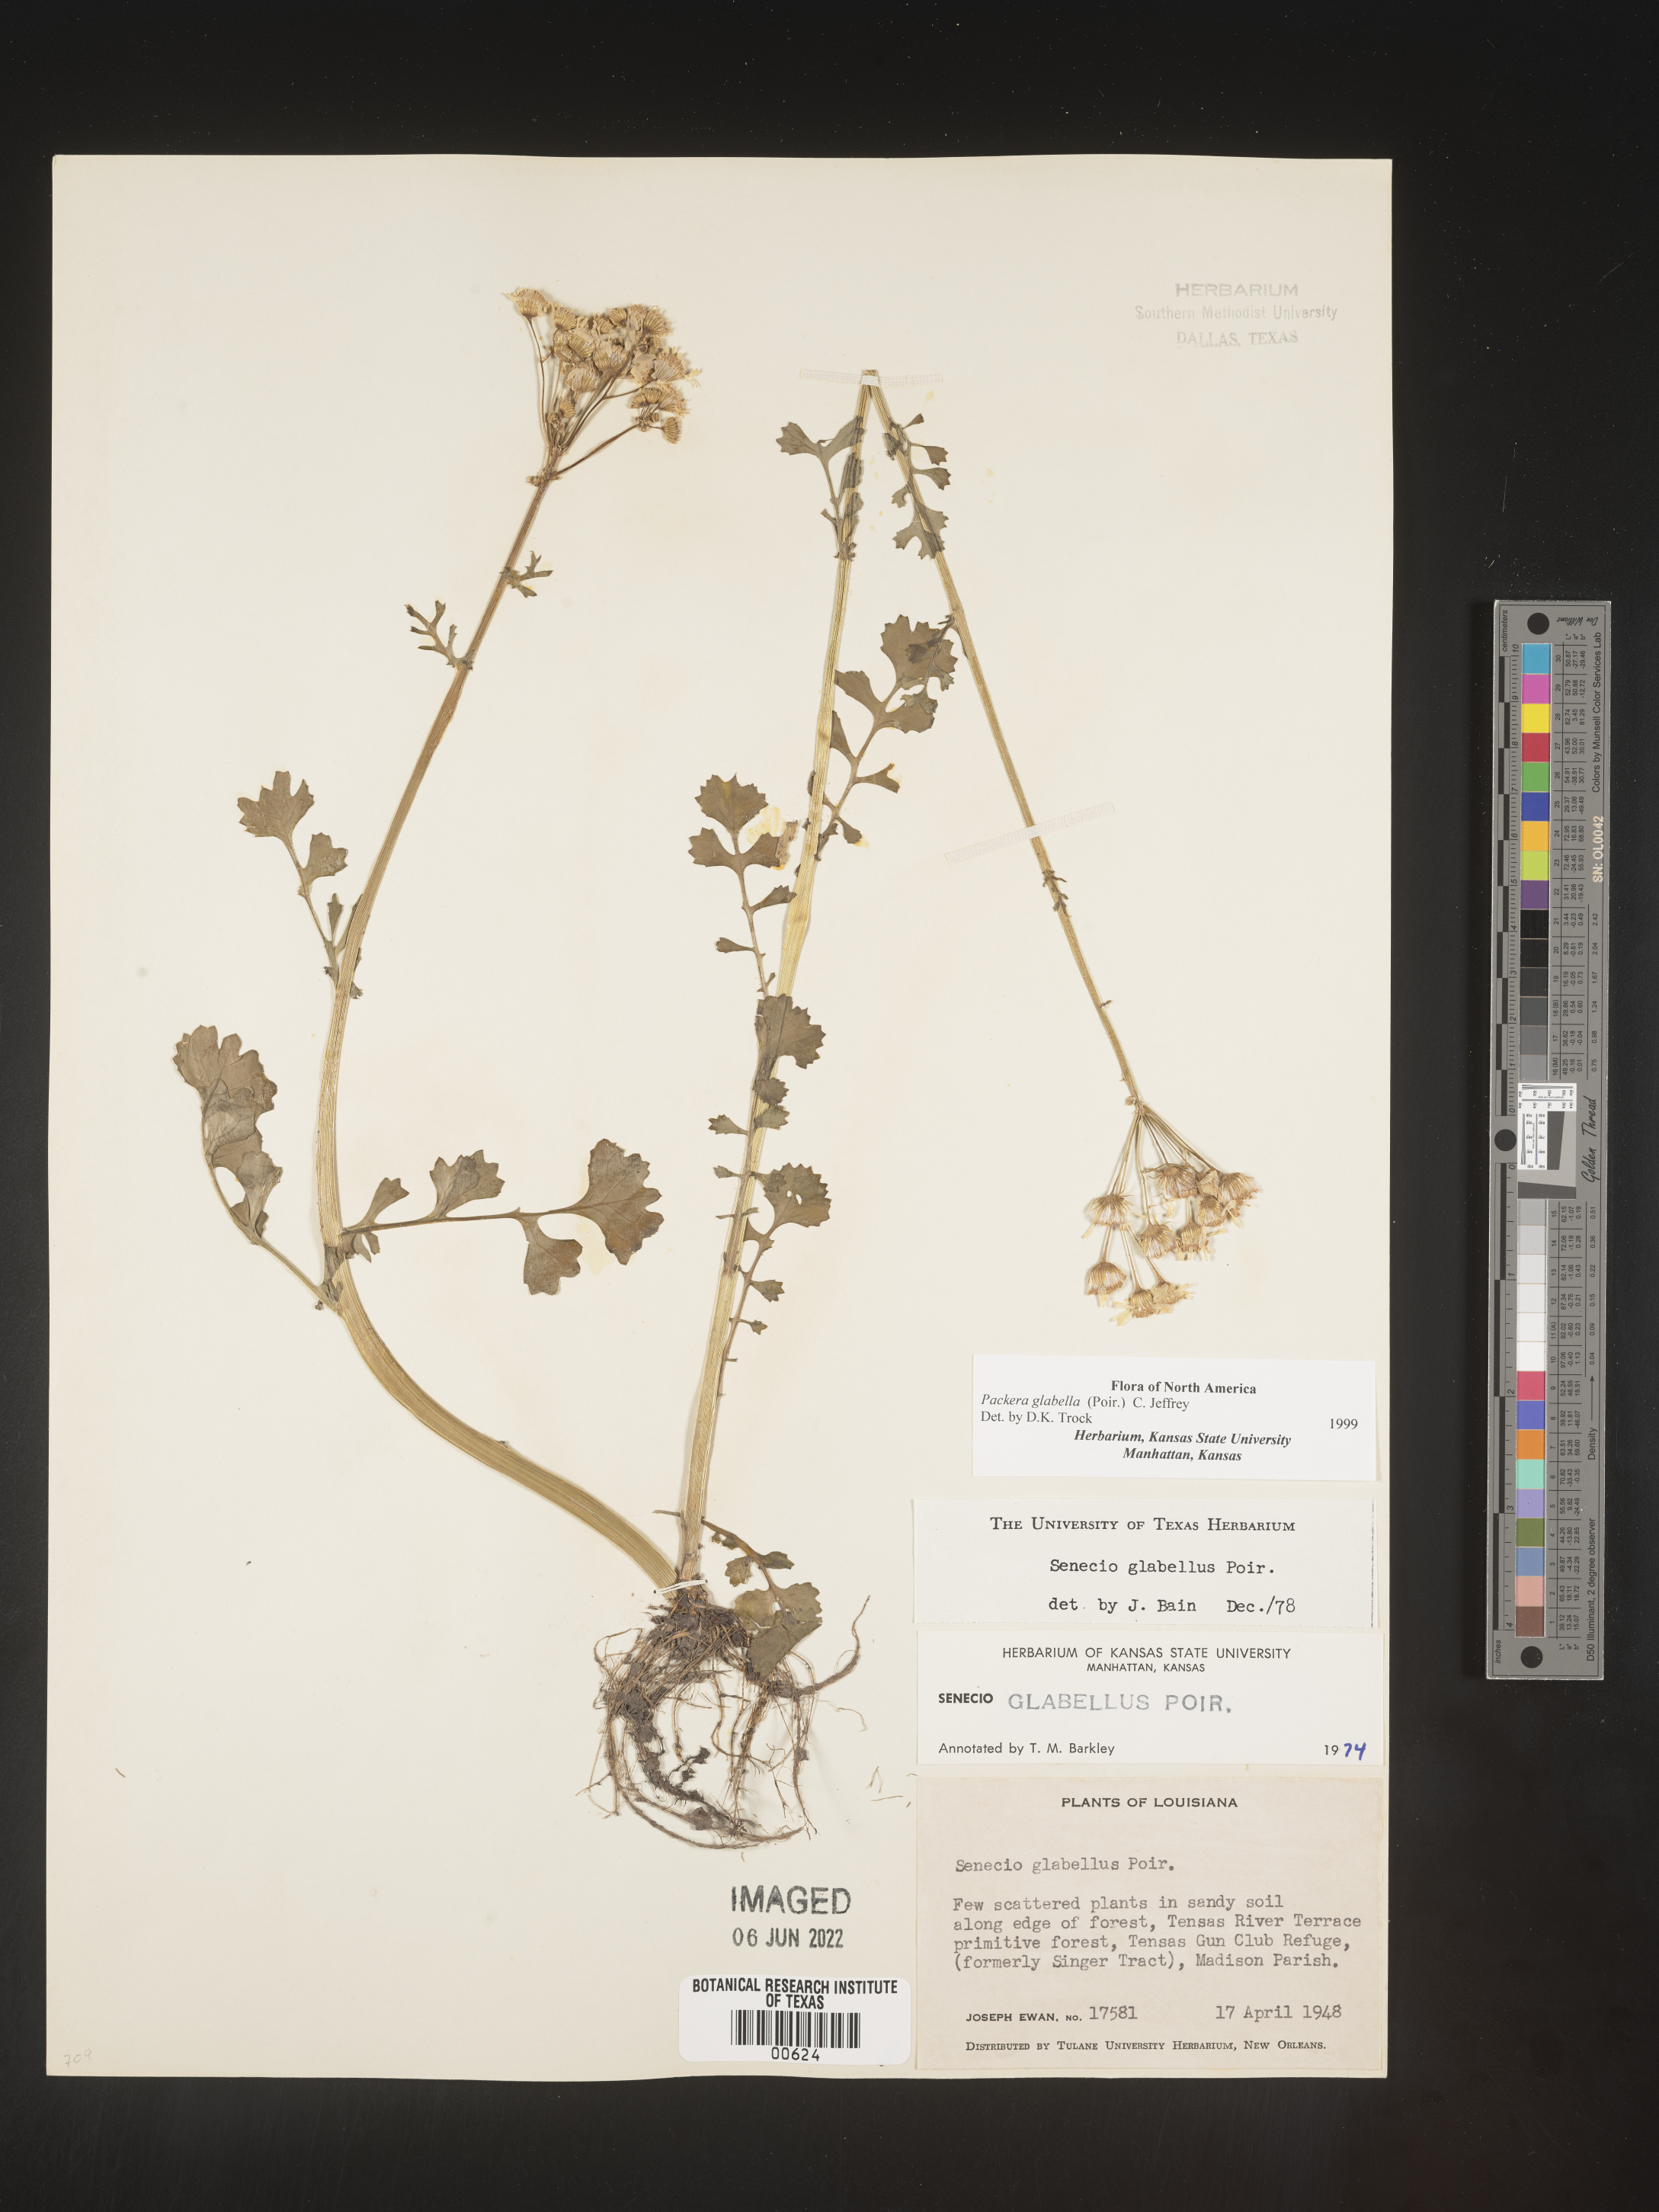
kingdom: Plantae
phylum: Tracheophyta
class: Magnoliopsida
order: Asterales
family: Asteraceae
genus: Packera
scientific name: Packera glabella
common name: Butterweed
